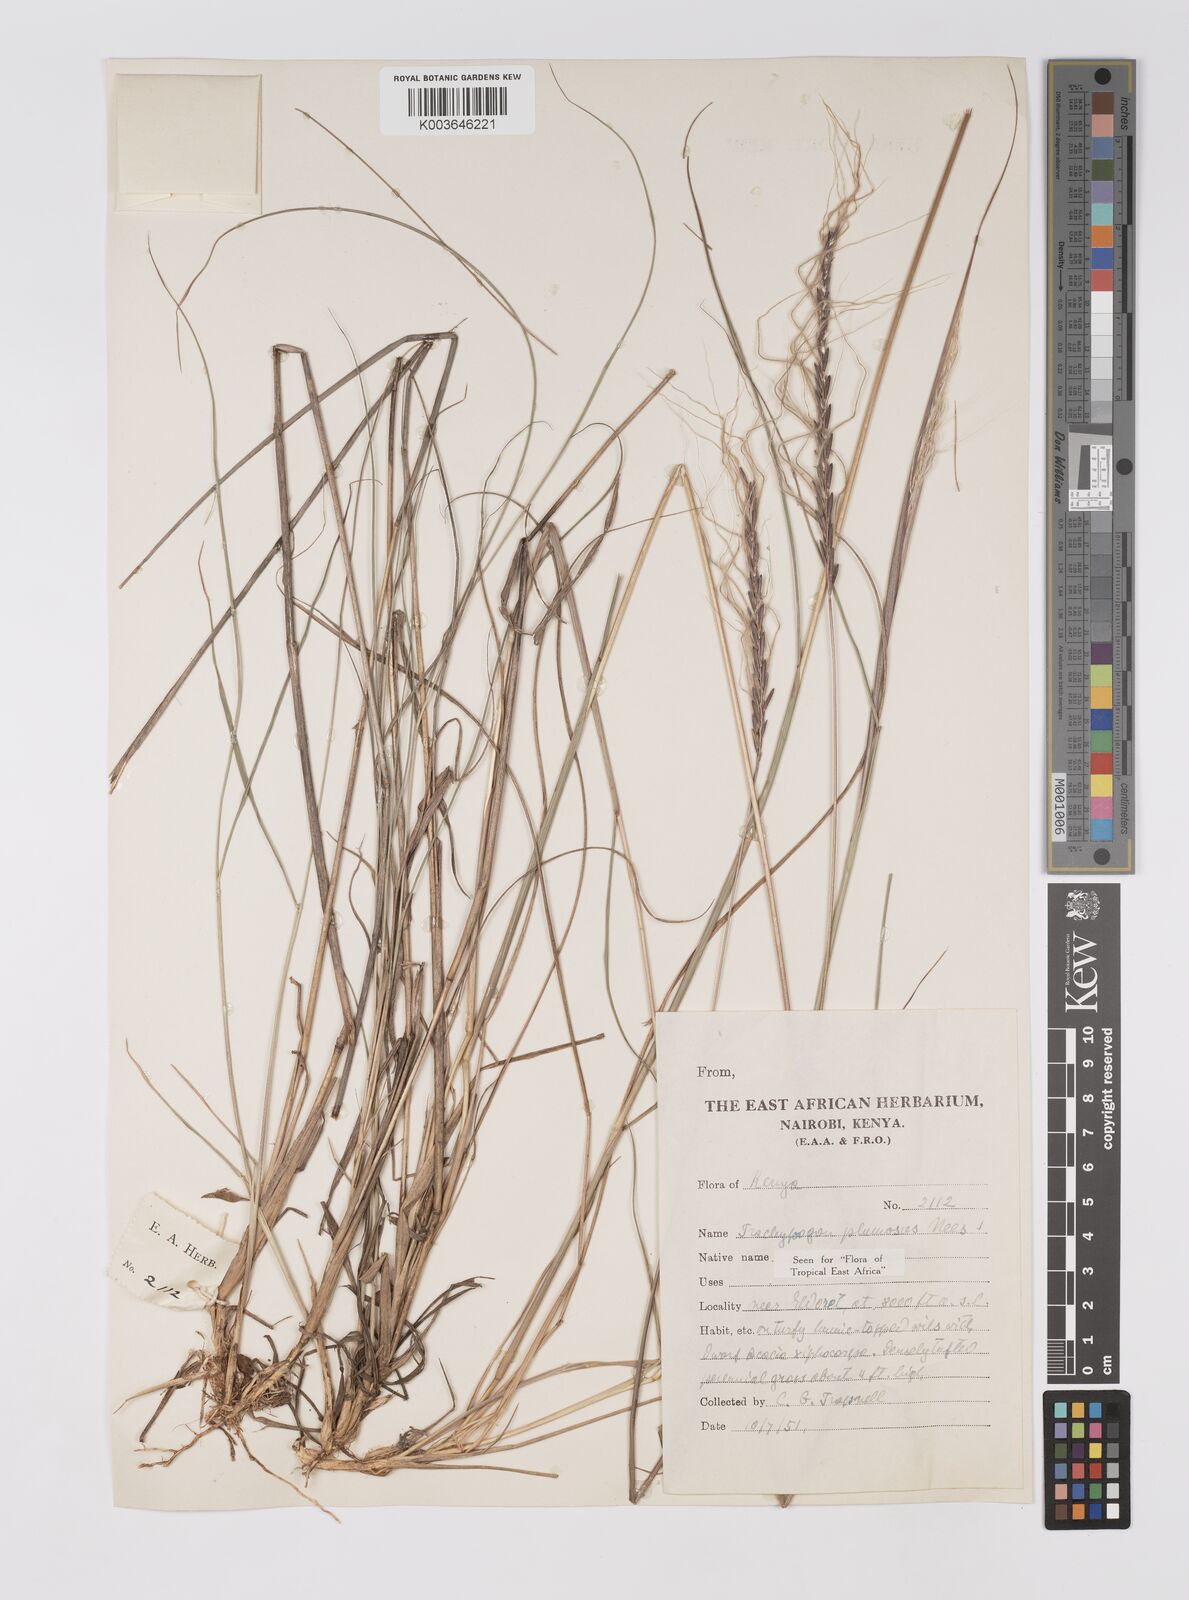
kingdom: Plantae
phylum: Tracheophyta
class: Liliopsida
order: Poales
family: Poaceae
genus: Trachypogon
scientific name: Trachypogon spicatus
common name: Crinkle-awn
